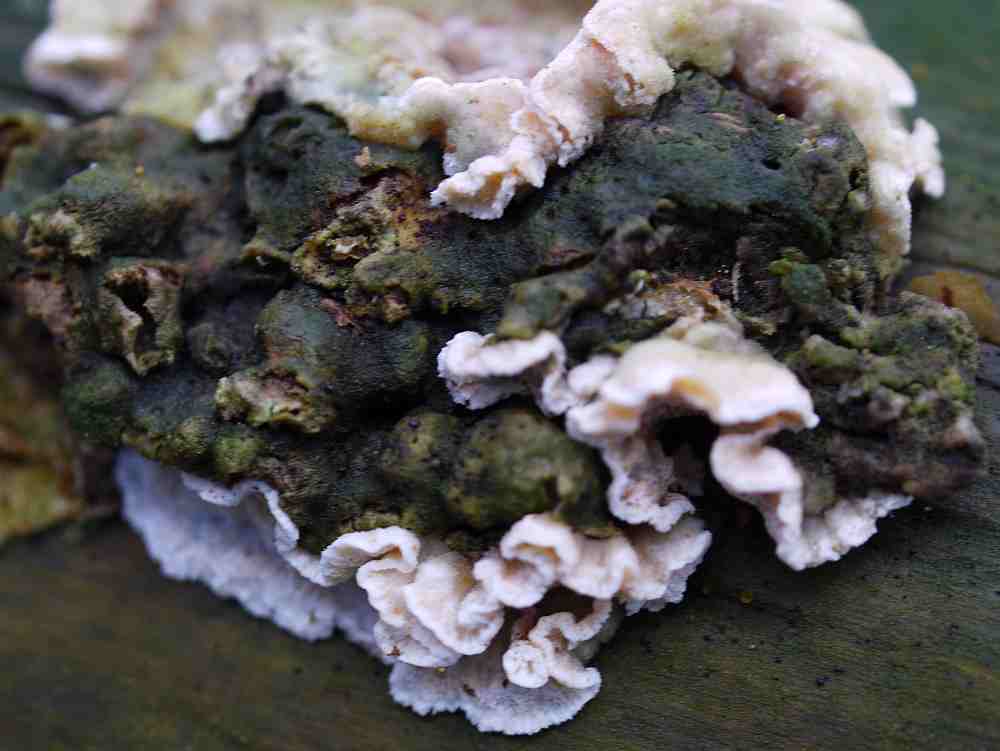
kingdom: Fungi
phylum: Basidiomycota
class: Agaricomycetes
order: Polyporales
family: Incrustoporiaceae
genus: Skeletocutis
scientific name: Skeletocutis carneogrisea
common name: rødgrå krystalporesvamp
